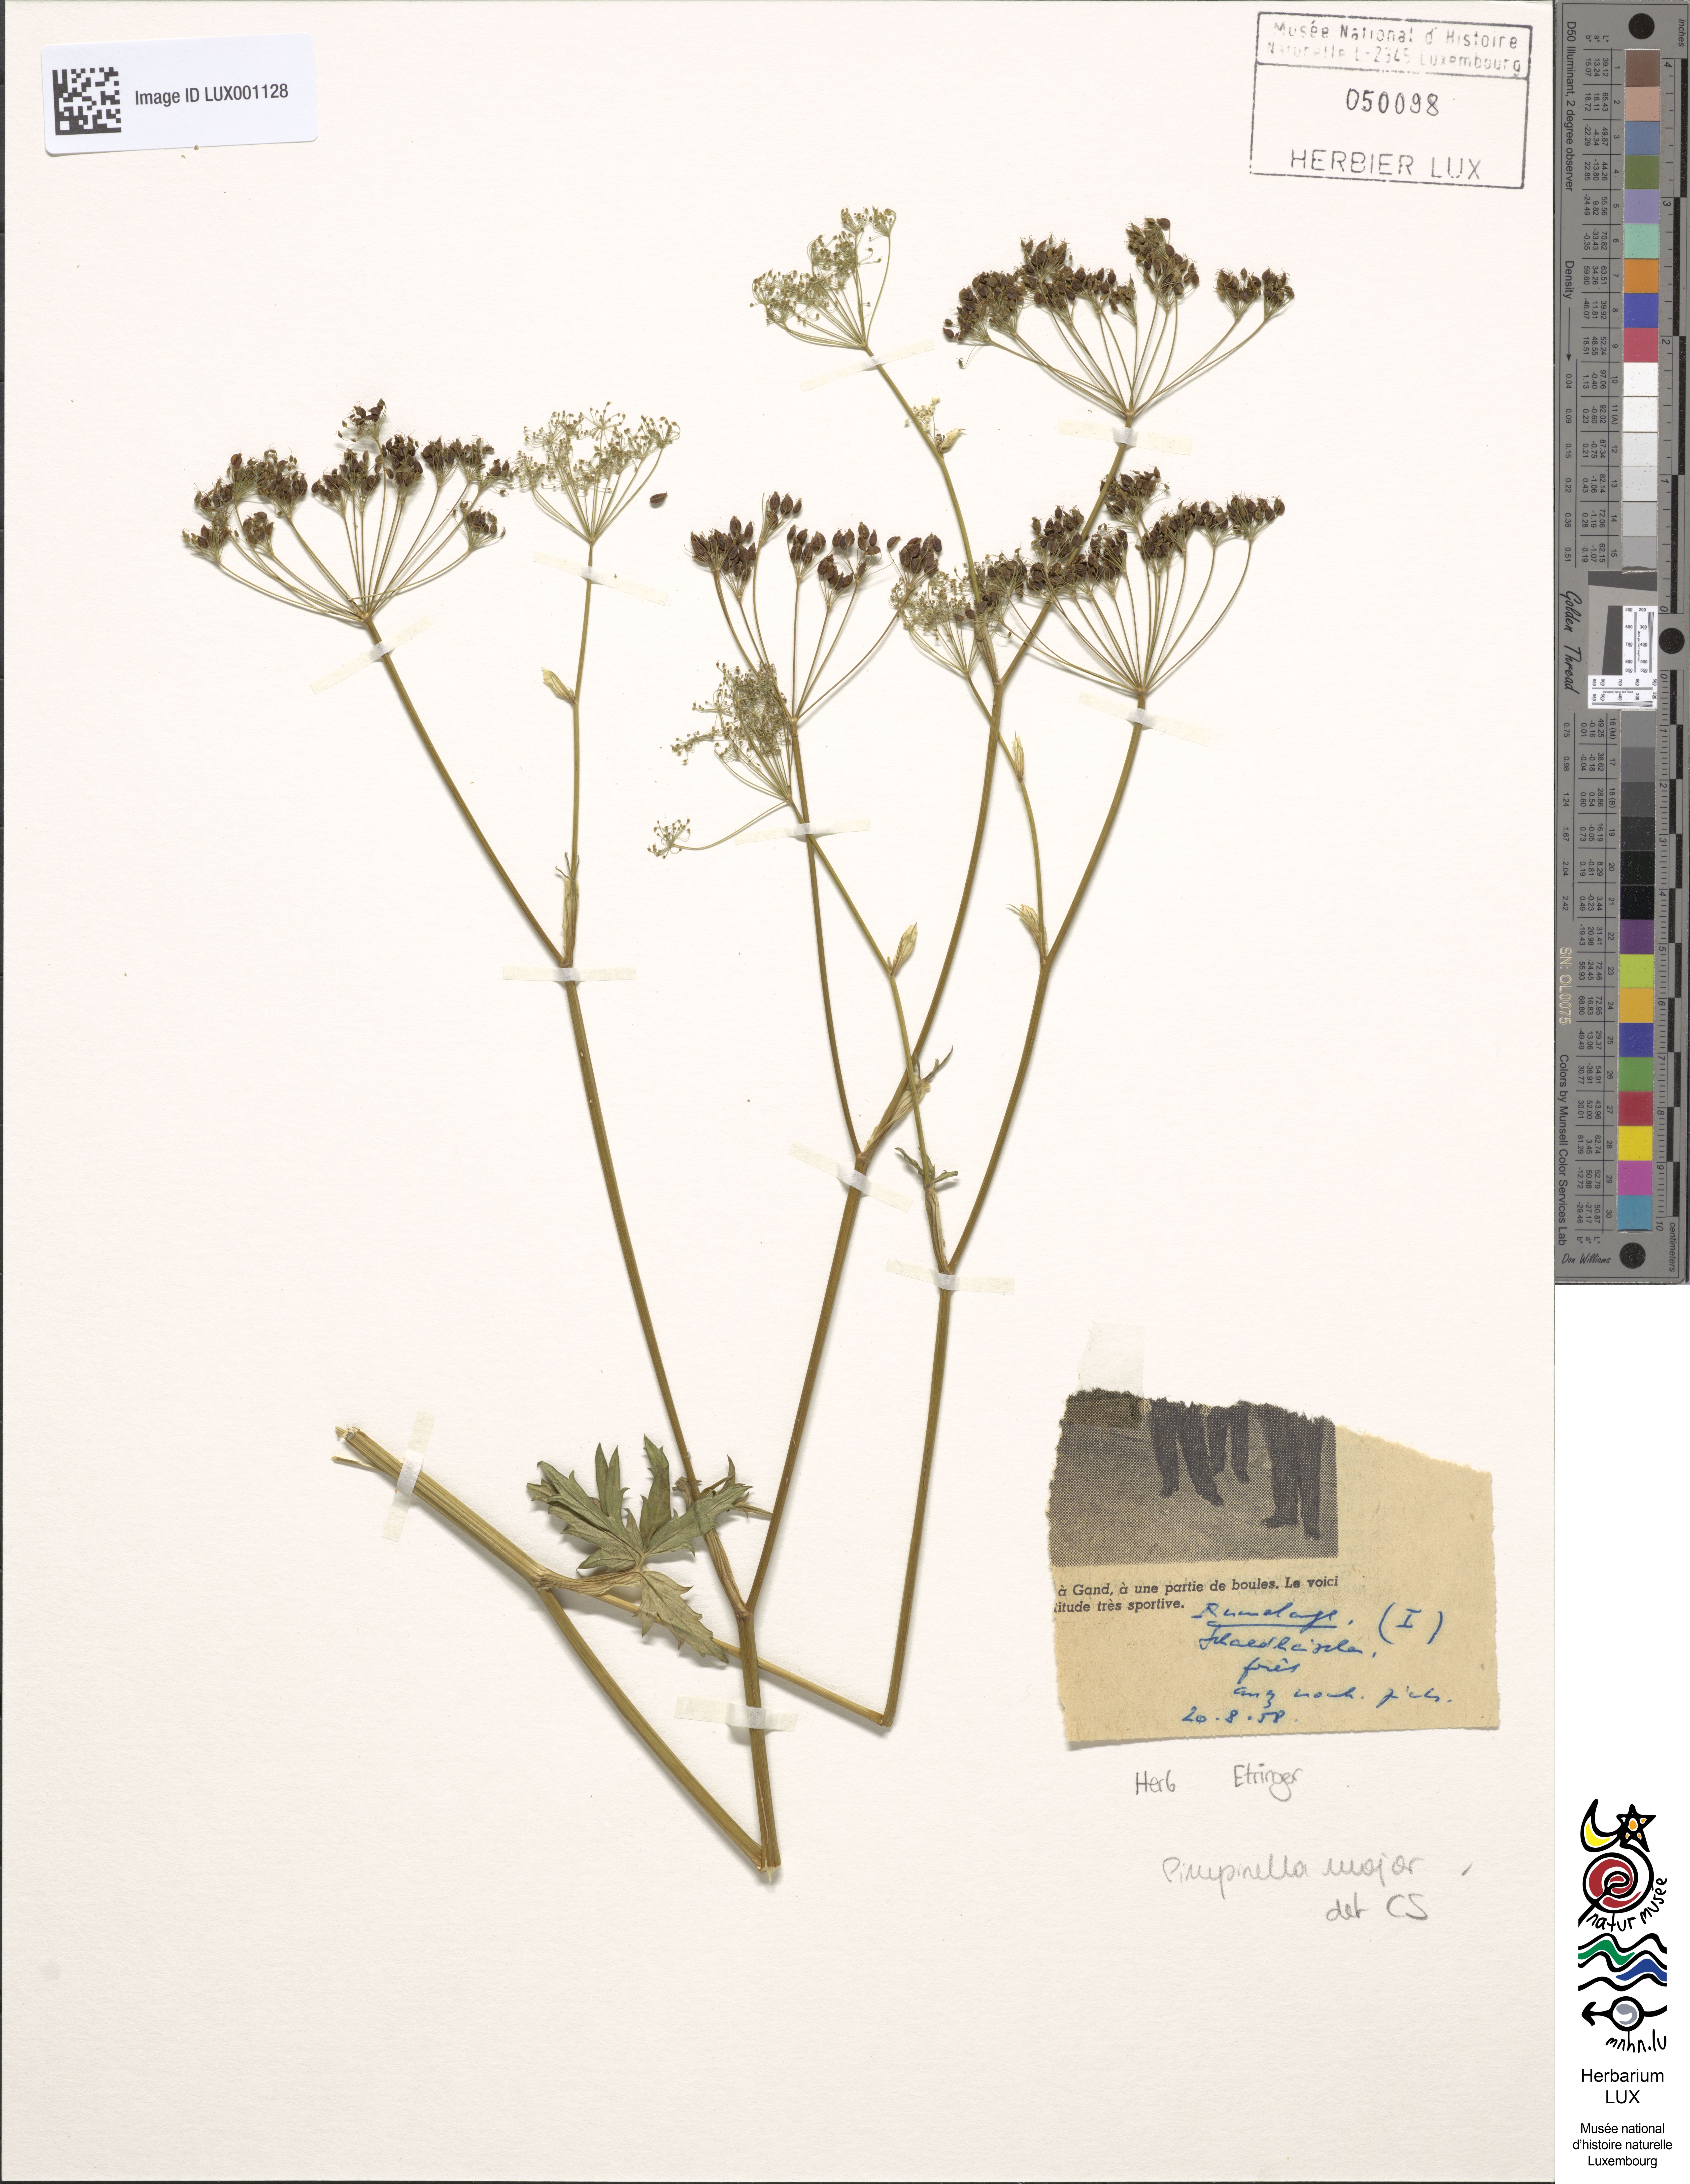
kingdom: Plantae
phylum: Tracheophyta
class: Magnoliopsida
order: Apiales
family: Apiaceae
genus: Pimpinella
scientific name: Pimpinella major
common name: Greater burnet-saxifrage
